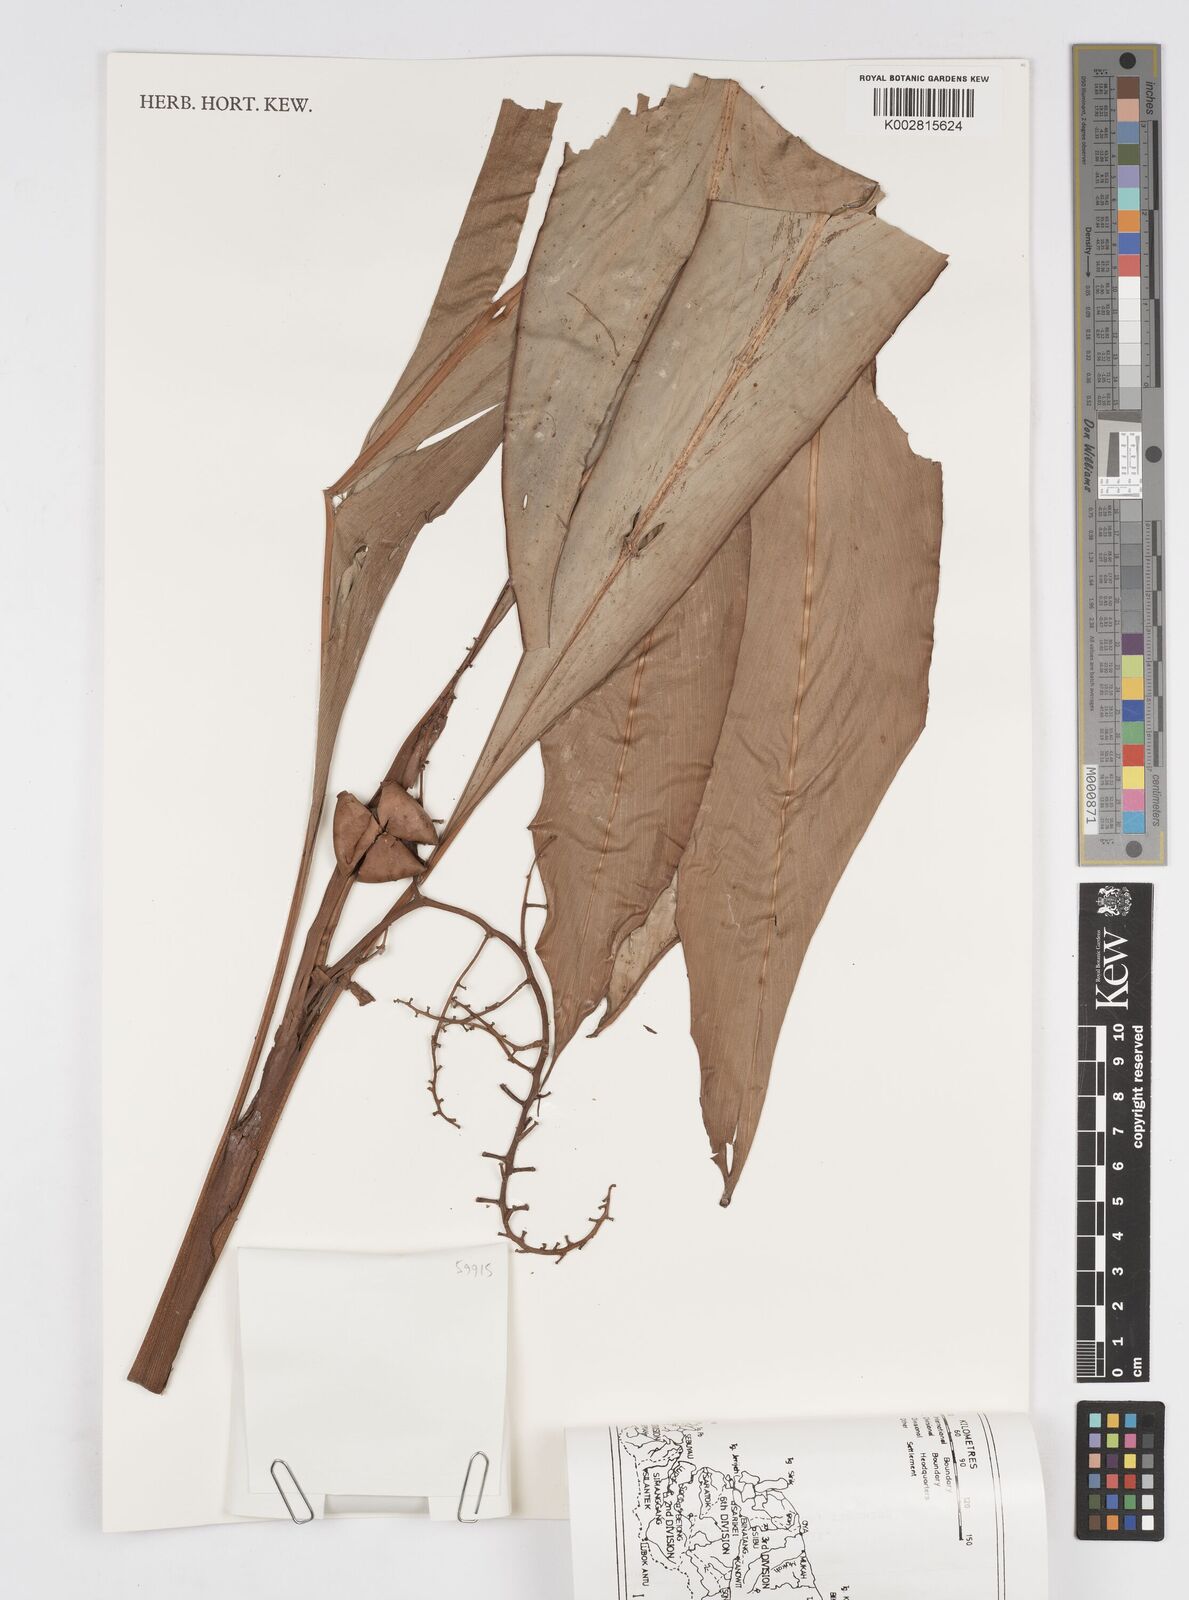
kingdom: Plantae
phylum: Tracheophyta
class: Liliopsida
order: Zingiberales
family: Zingiberaceae
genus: Alpinia
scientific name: Alpinia ligulata
